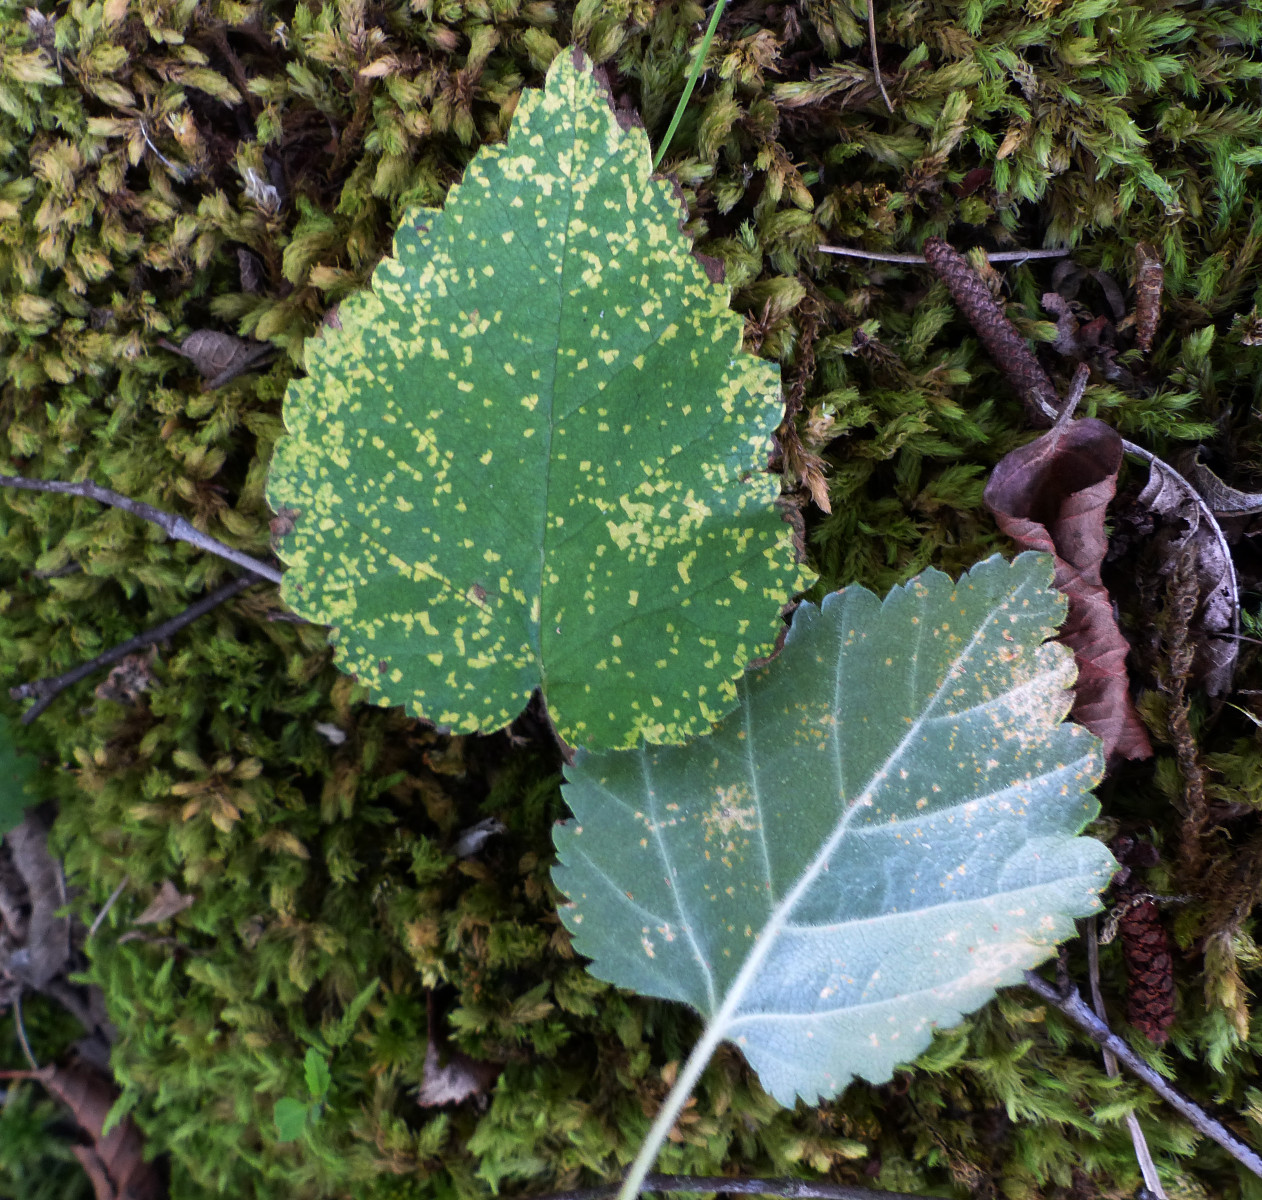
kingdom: Fungi
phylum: Basidiomycota
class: Pucciniomycetes
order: Pucciniales
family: Pucciniastraceae
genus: Melampsoridium
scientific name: Melampsoridium betulinum
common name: Birch rust
